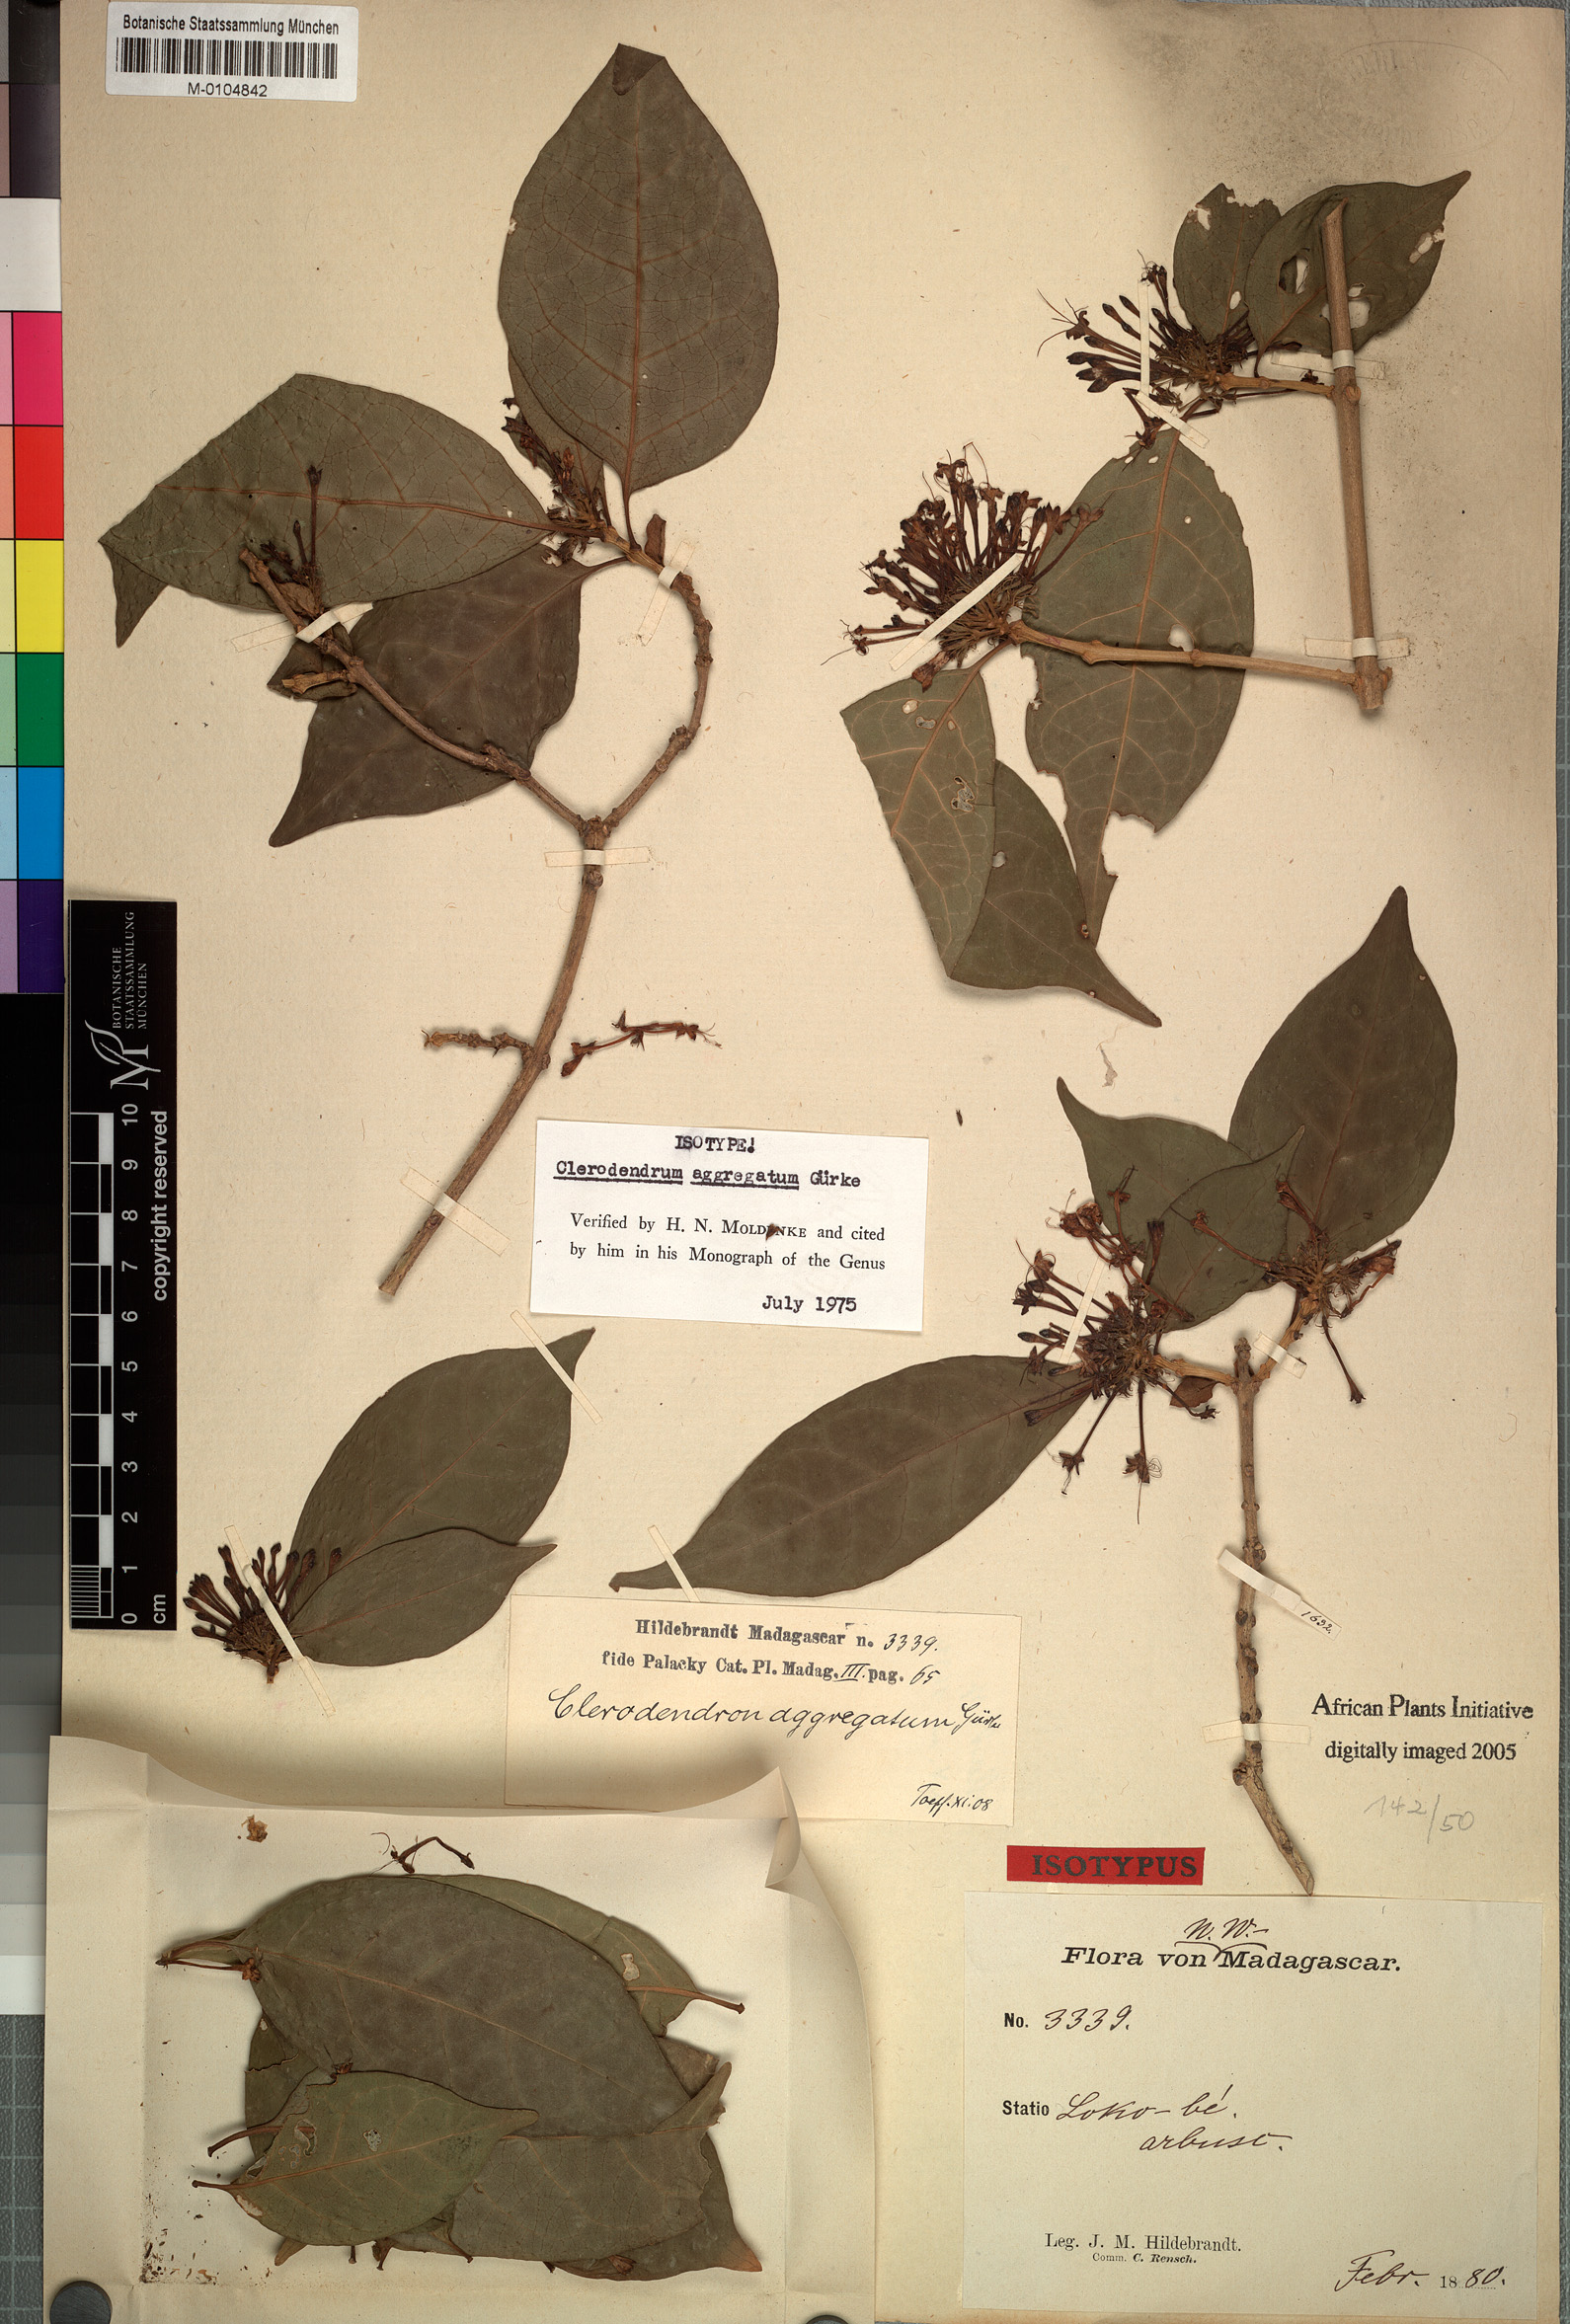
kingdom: Plantae
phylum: Tracheophyta
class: Magnoliopsida
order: Lamiales
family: Lamiaceae
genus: Volkameria
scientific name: Volkameria aggregata
